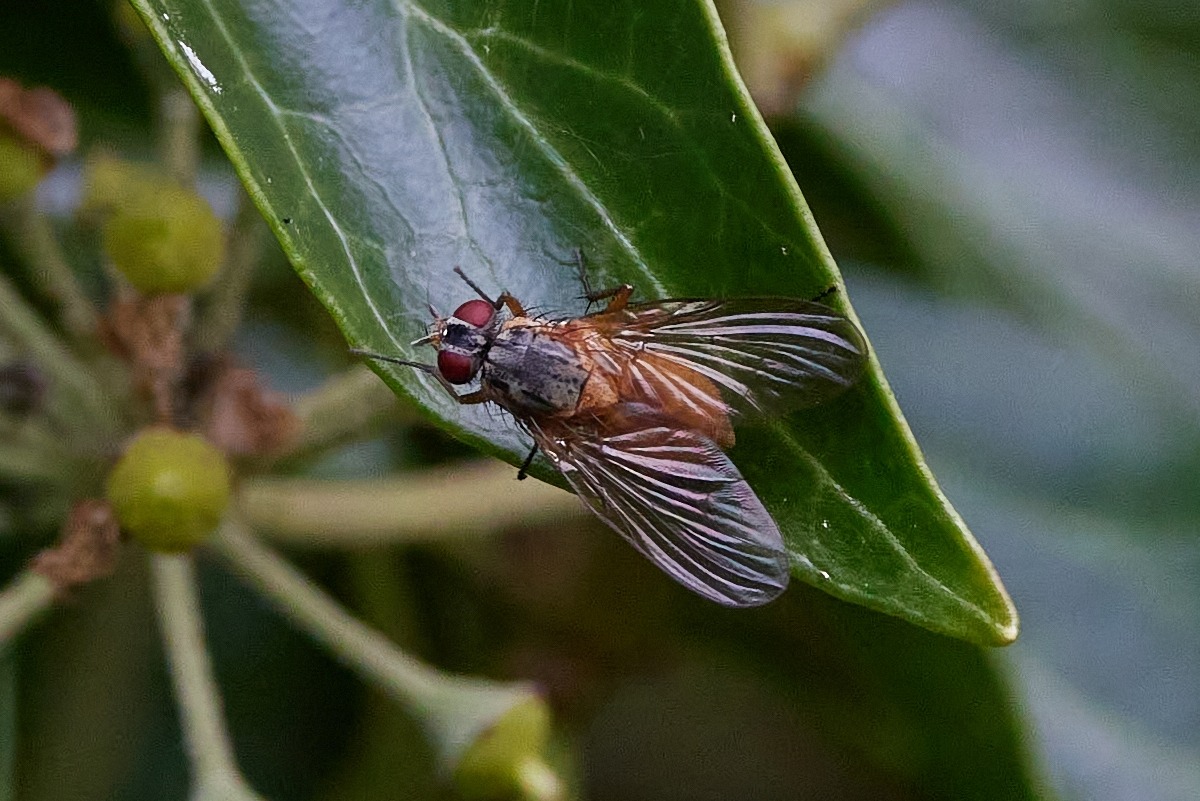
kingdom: Animalia
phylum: Arthropoda
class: Insecta
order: Diptera
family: Muscidae
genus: Phaonia
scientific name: Phaonia rufiventris
